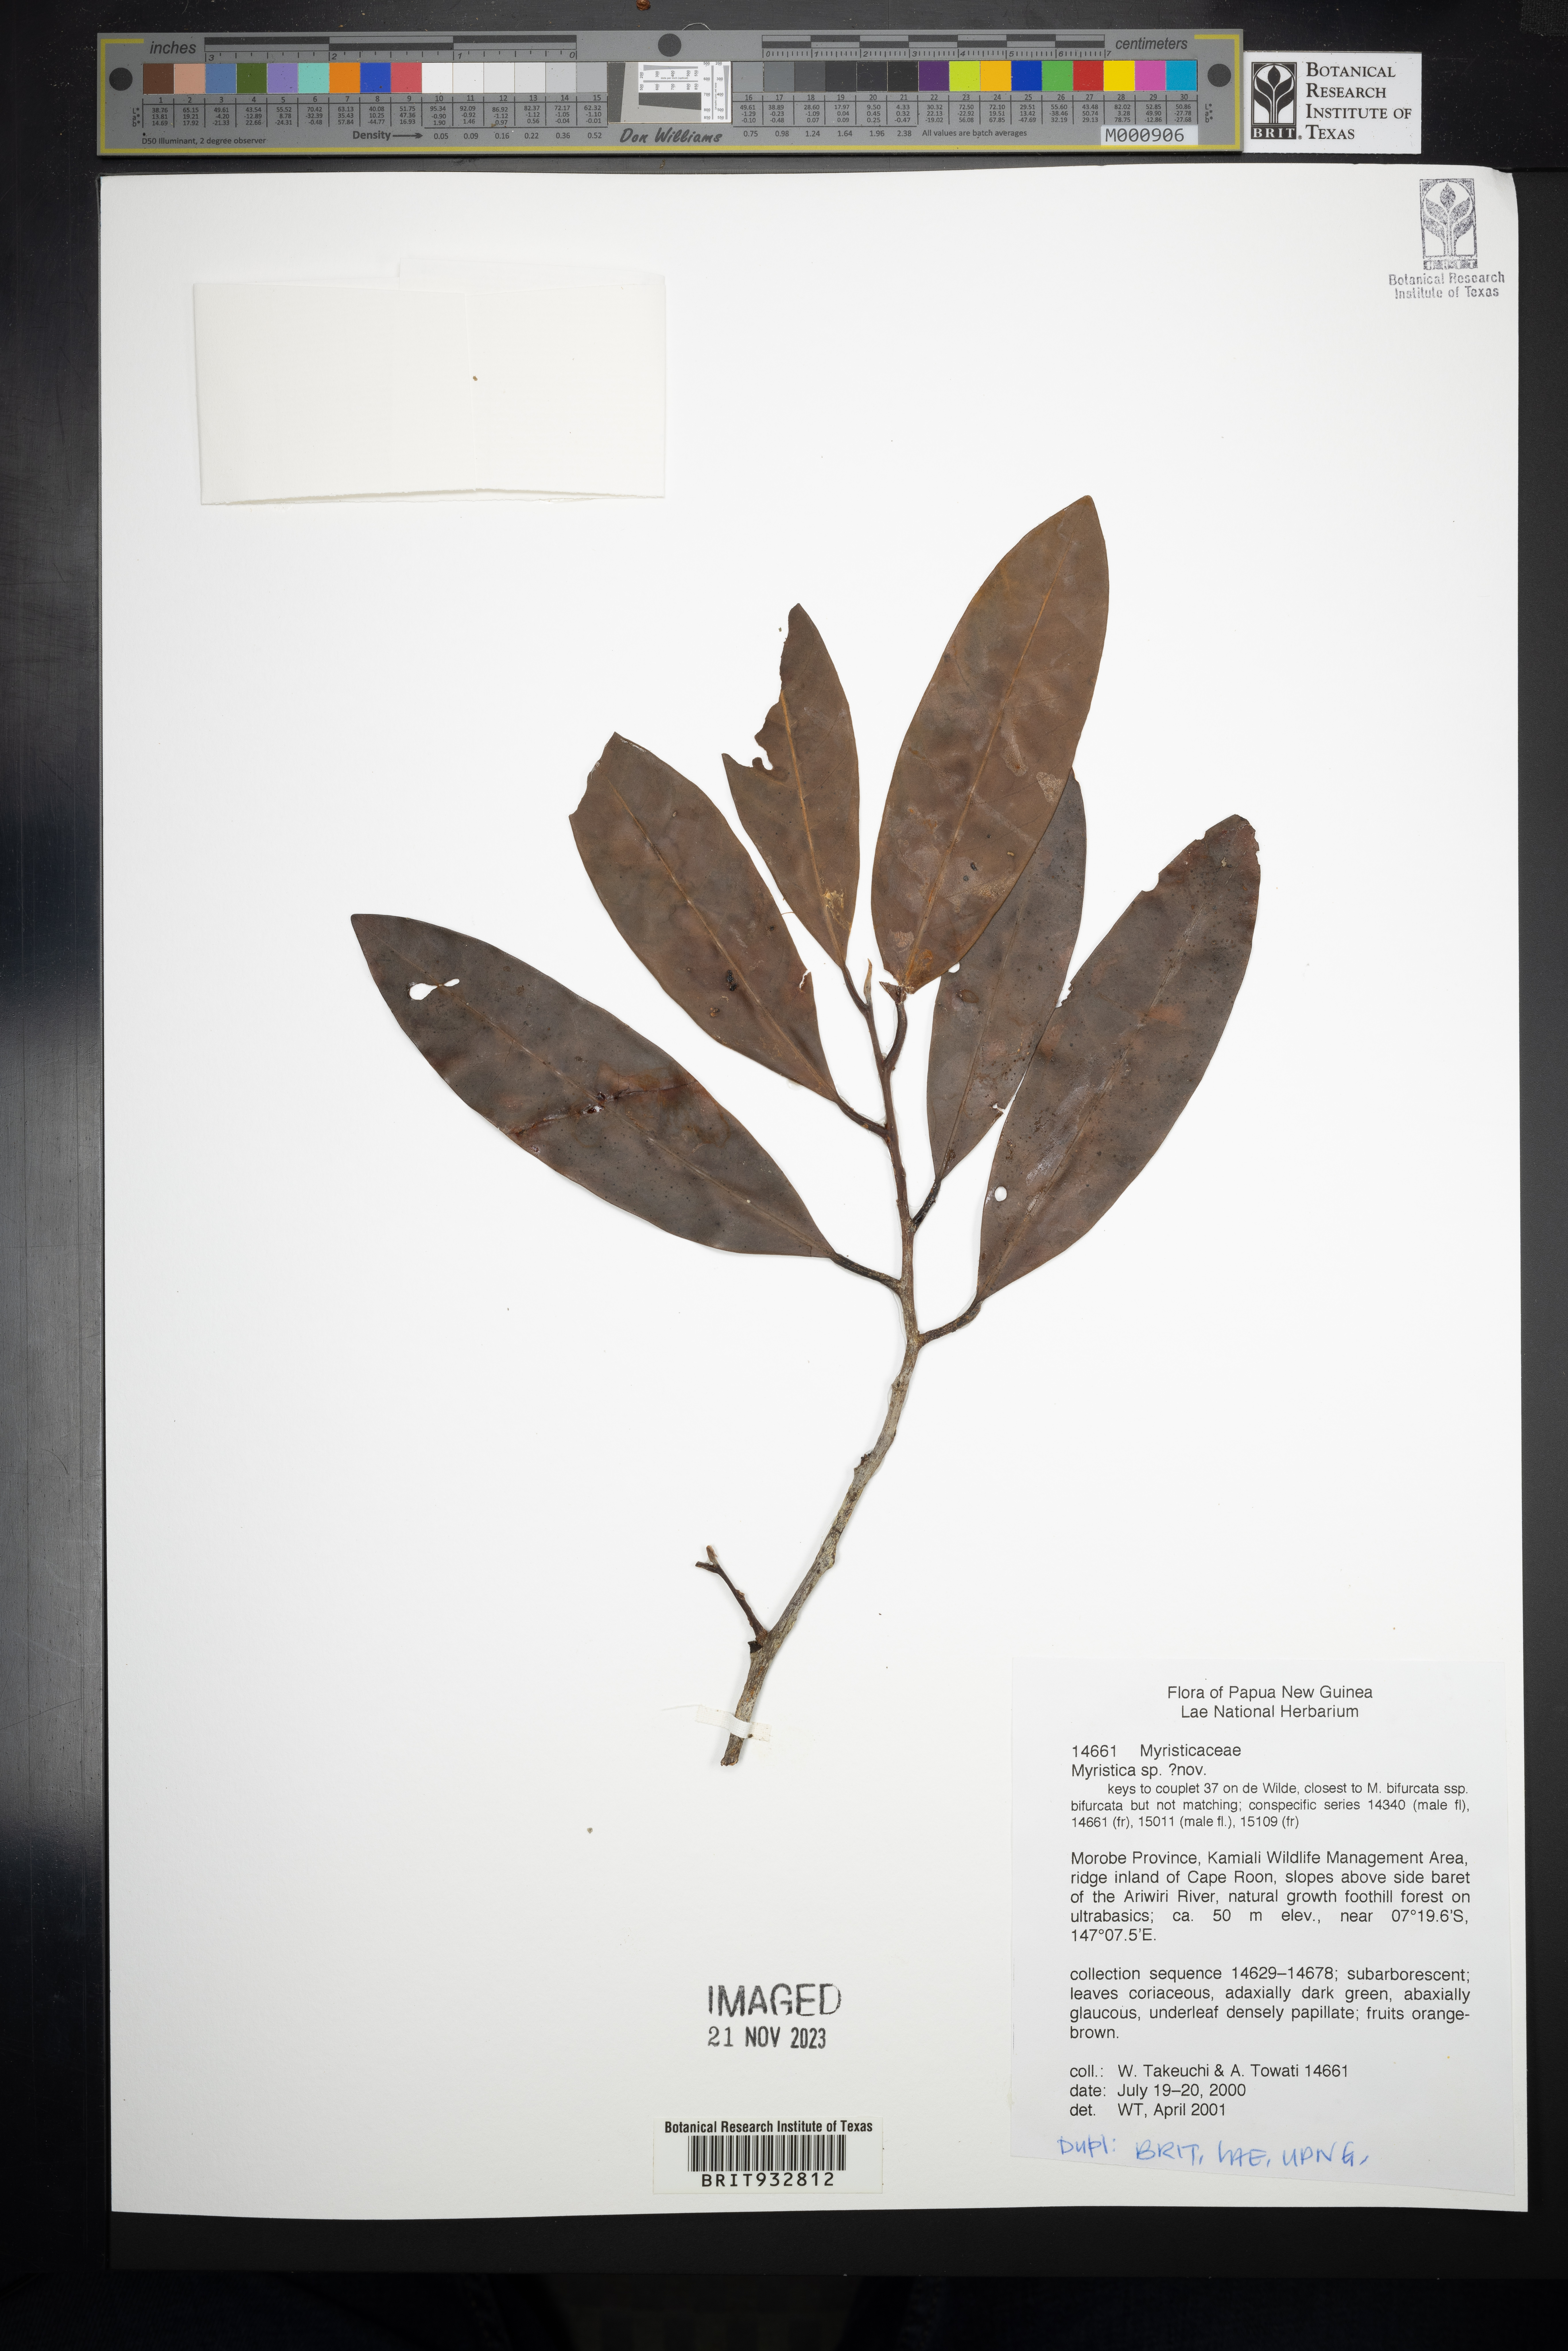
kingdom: Plantae
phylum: Tracheophyta
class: Magnoliopsida
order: Magnoliales
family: Myristicaceae
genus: Myristica
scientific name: Myristica
